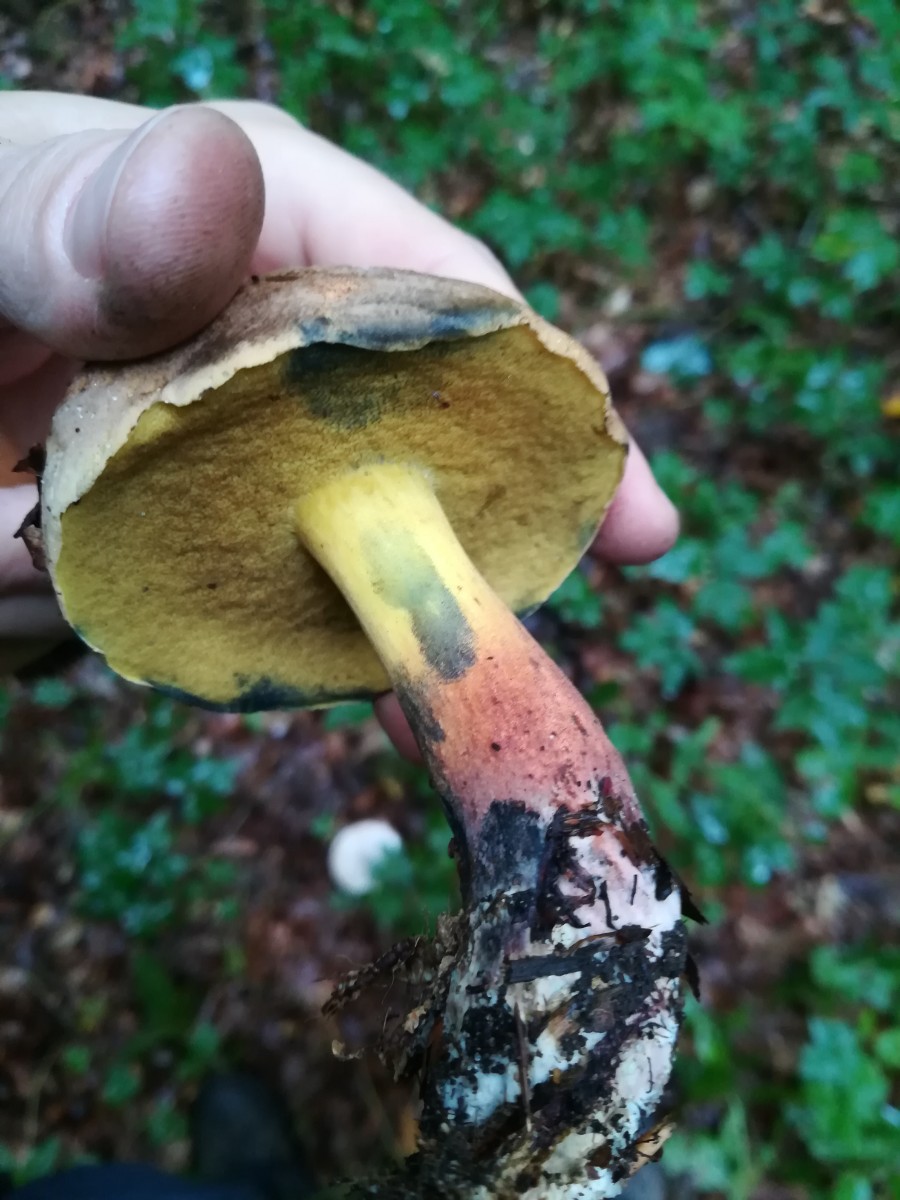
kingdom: Fungi
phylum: Basidiomycota
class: Agaricomycetes
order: Boletales
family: Boletaceae
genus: Cyanoboletus
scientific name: Cyanoboletus pulverulentus
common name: sortblånende rørhat
